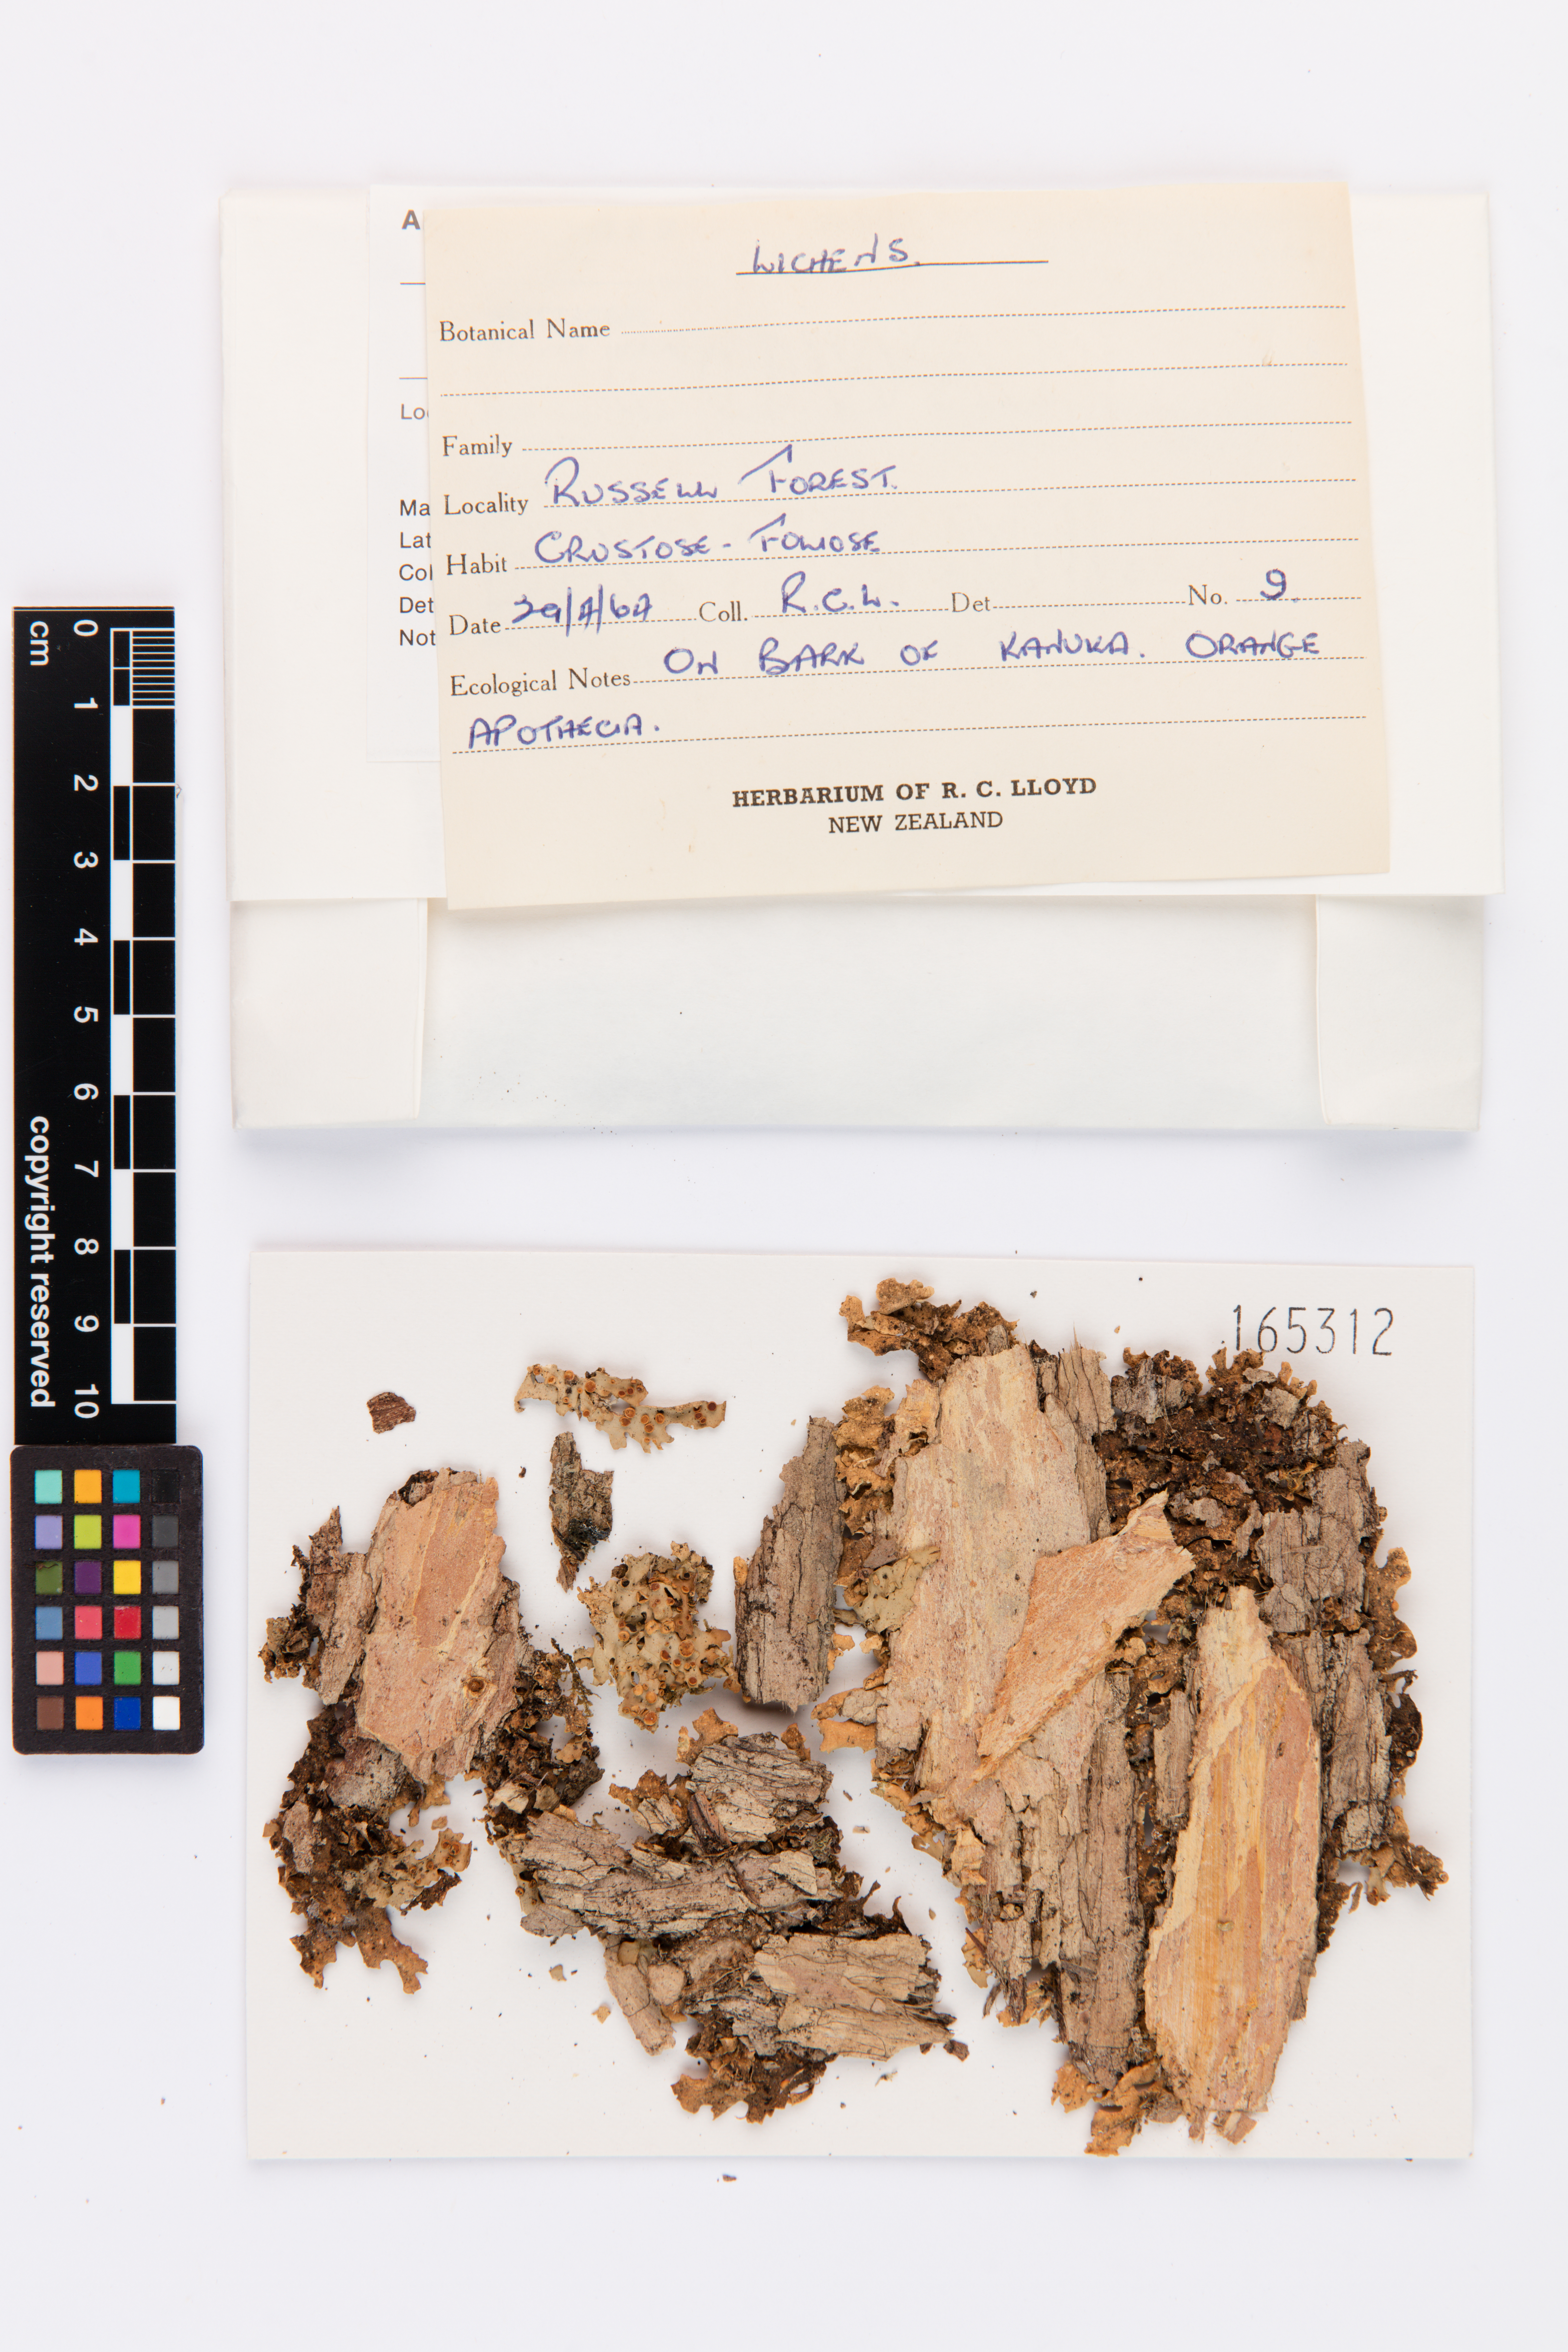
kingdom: Fungi
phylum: Ascomycota
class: Lecanoromycetes
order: Peltigerales
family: Lobariaceae
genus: Sticta
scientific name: Sticta subcaperata
